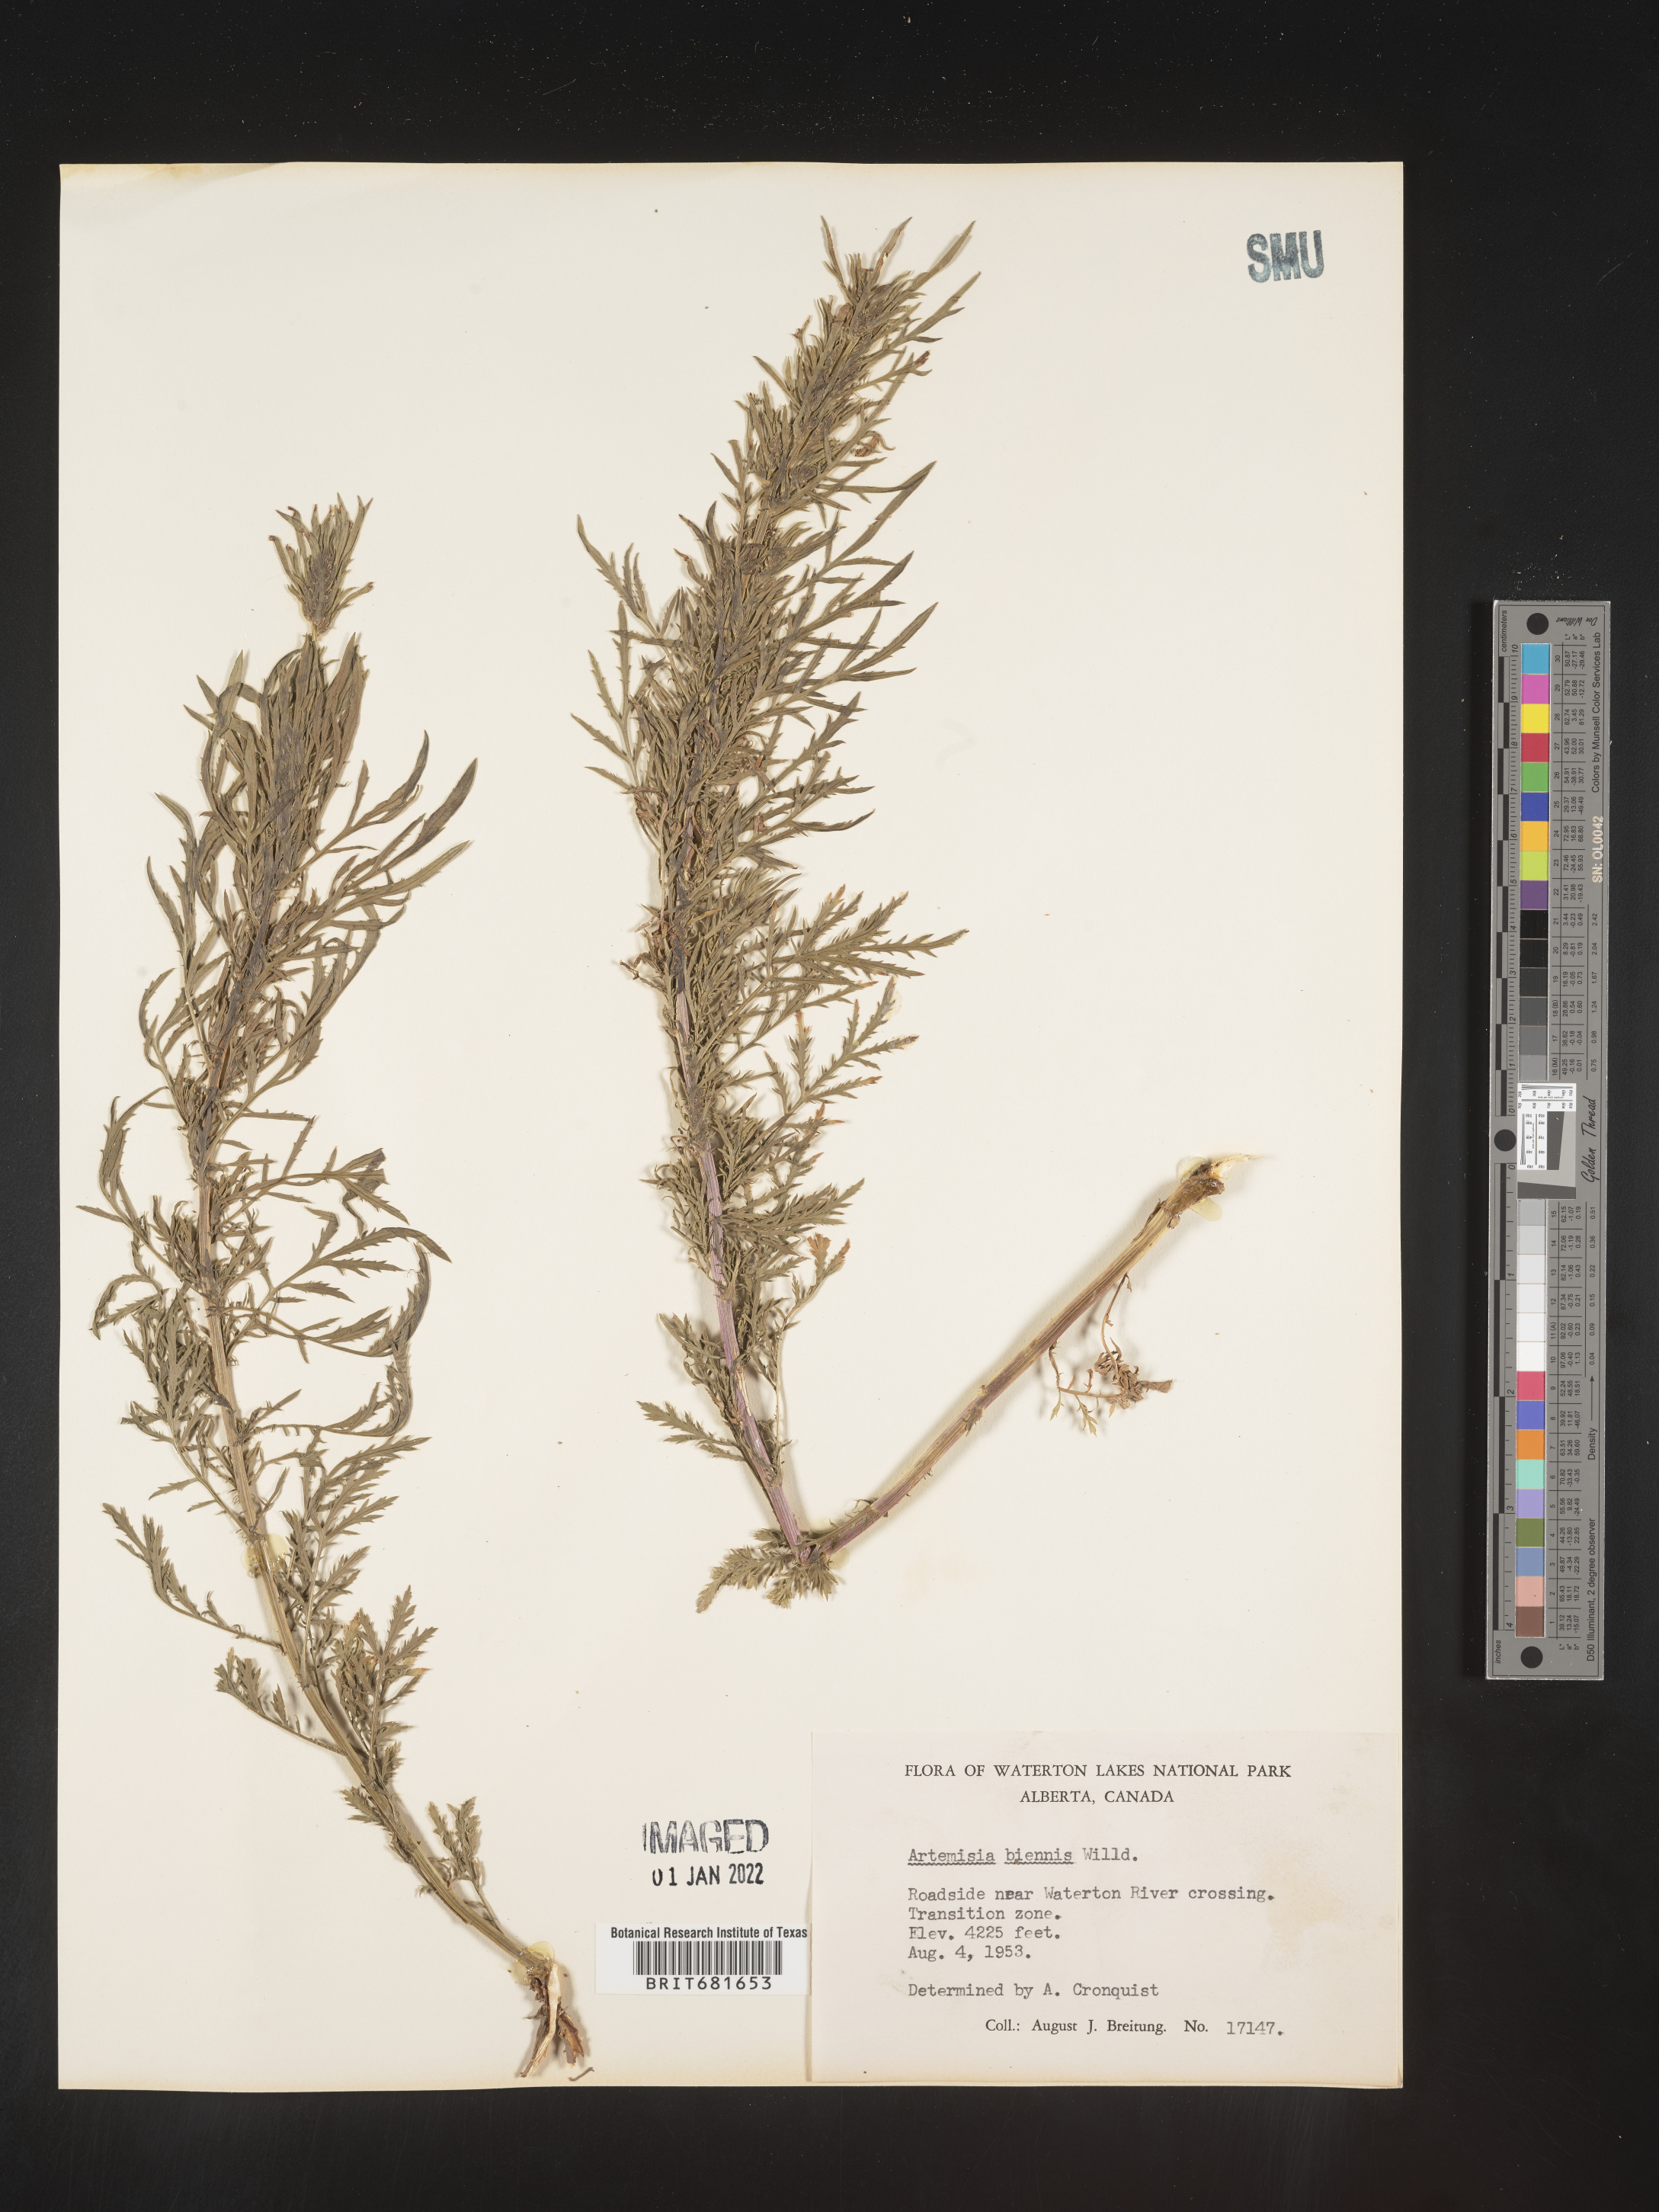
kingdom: Plantae
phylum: Tracheophyta
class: Magnoliopsida
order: Asterales
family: Asteraceae
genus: Artemisia
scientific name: Artemisia biennis
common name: Biennial wormwood
